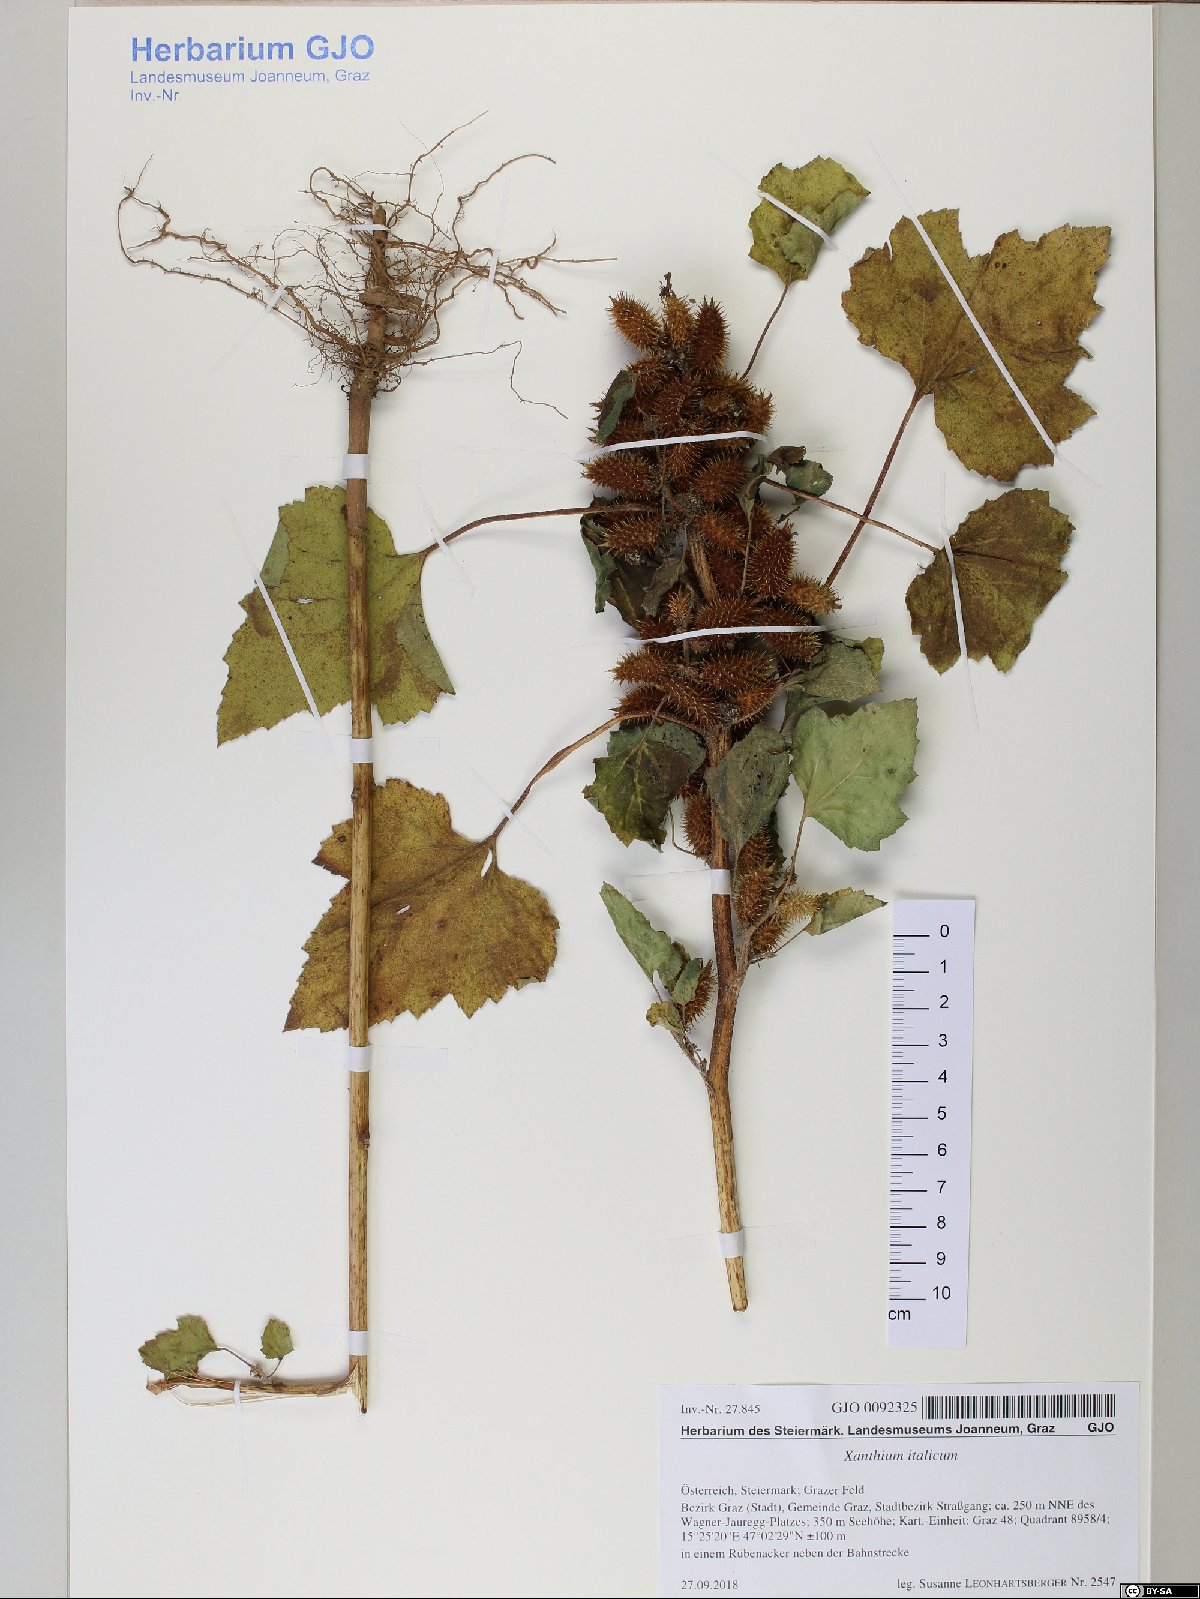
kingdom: Plantae
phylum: Tracheophyta
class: Magnoliopsida
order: Asterales
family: Asteraceae
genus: Xanthium
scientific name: Xanthium orientale
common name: Californian burr
